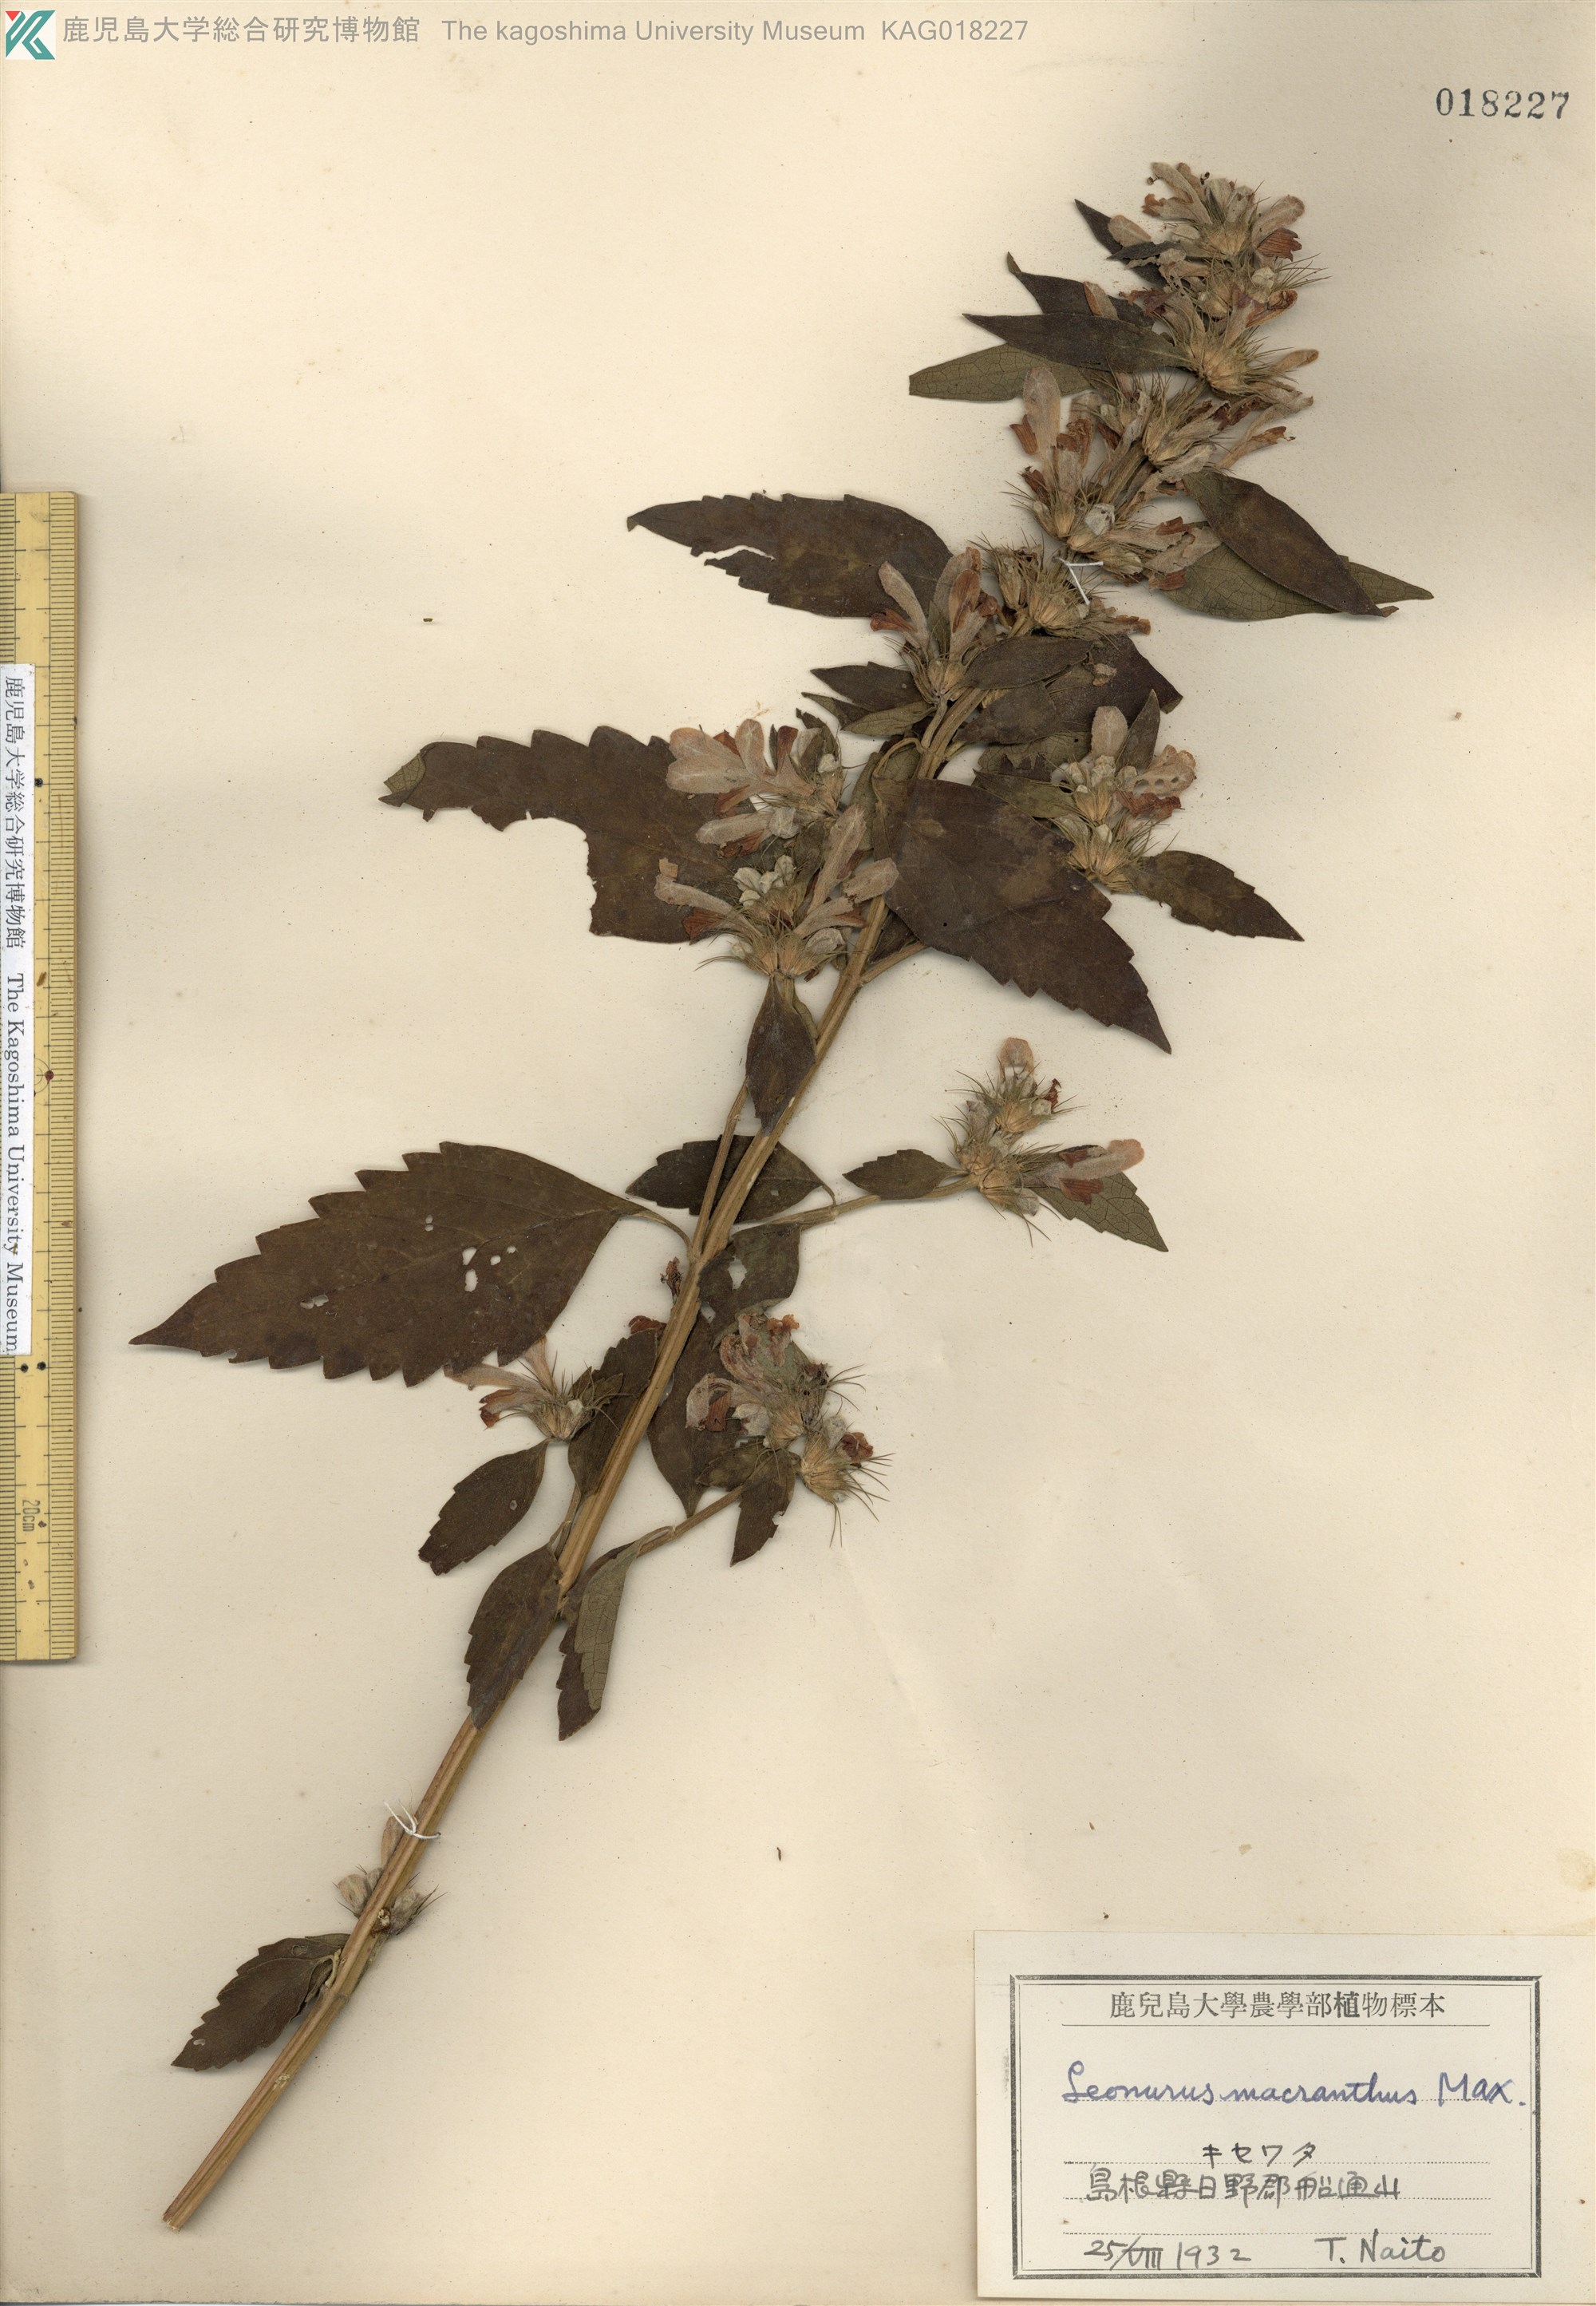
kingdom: Plantae
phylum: Tracheophyta
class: Magnoliopsida
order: Lamiales
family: Lamiaceae
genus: Leonurus
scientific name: Leonurus macranthus
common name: キセワタ
